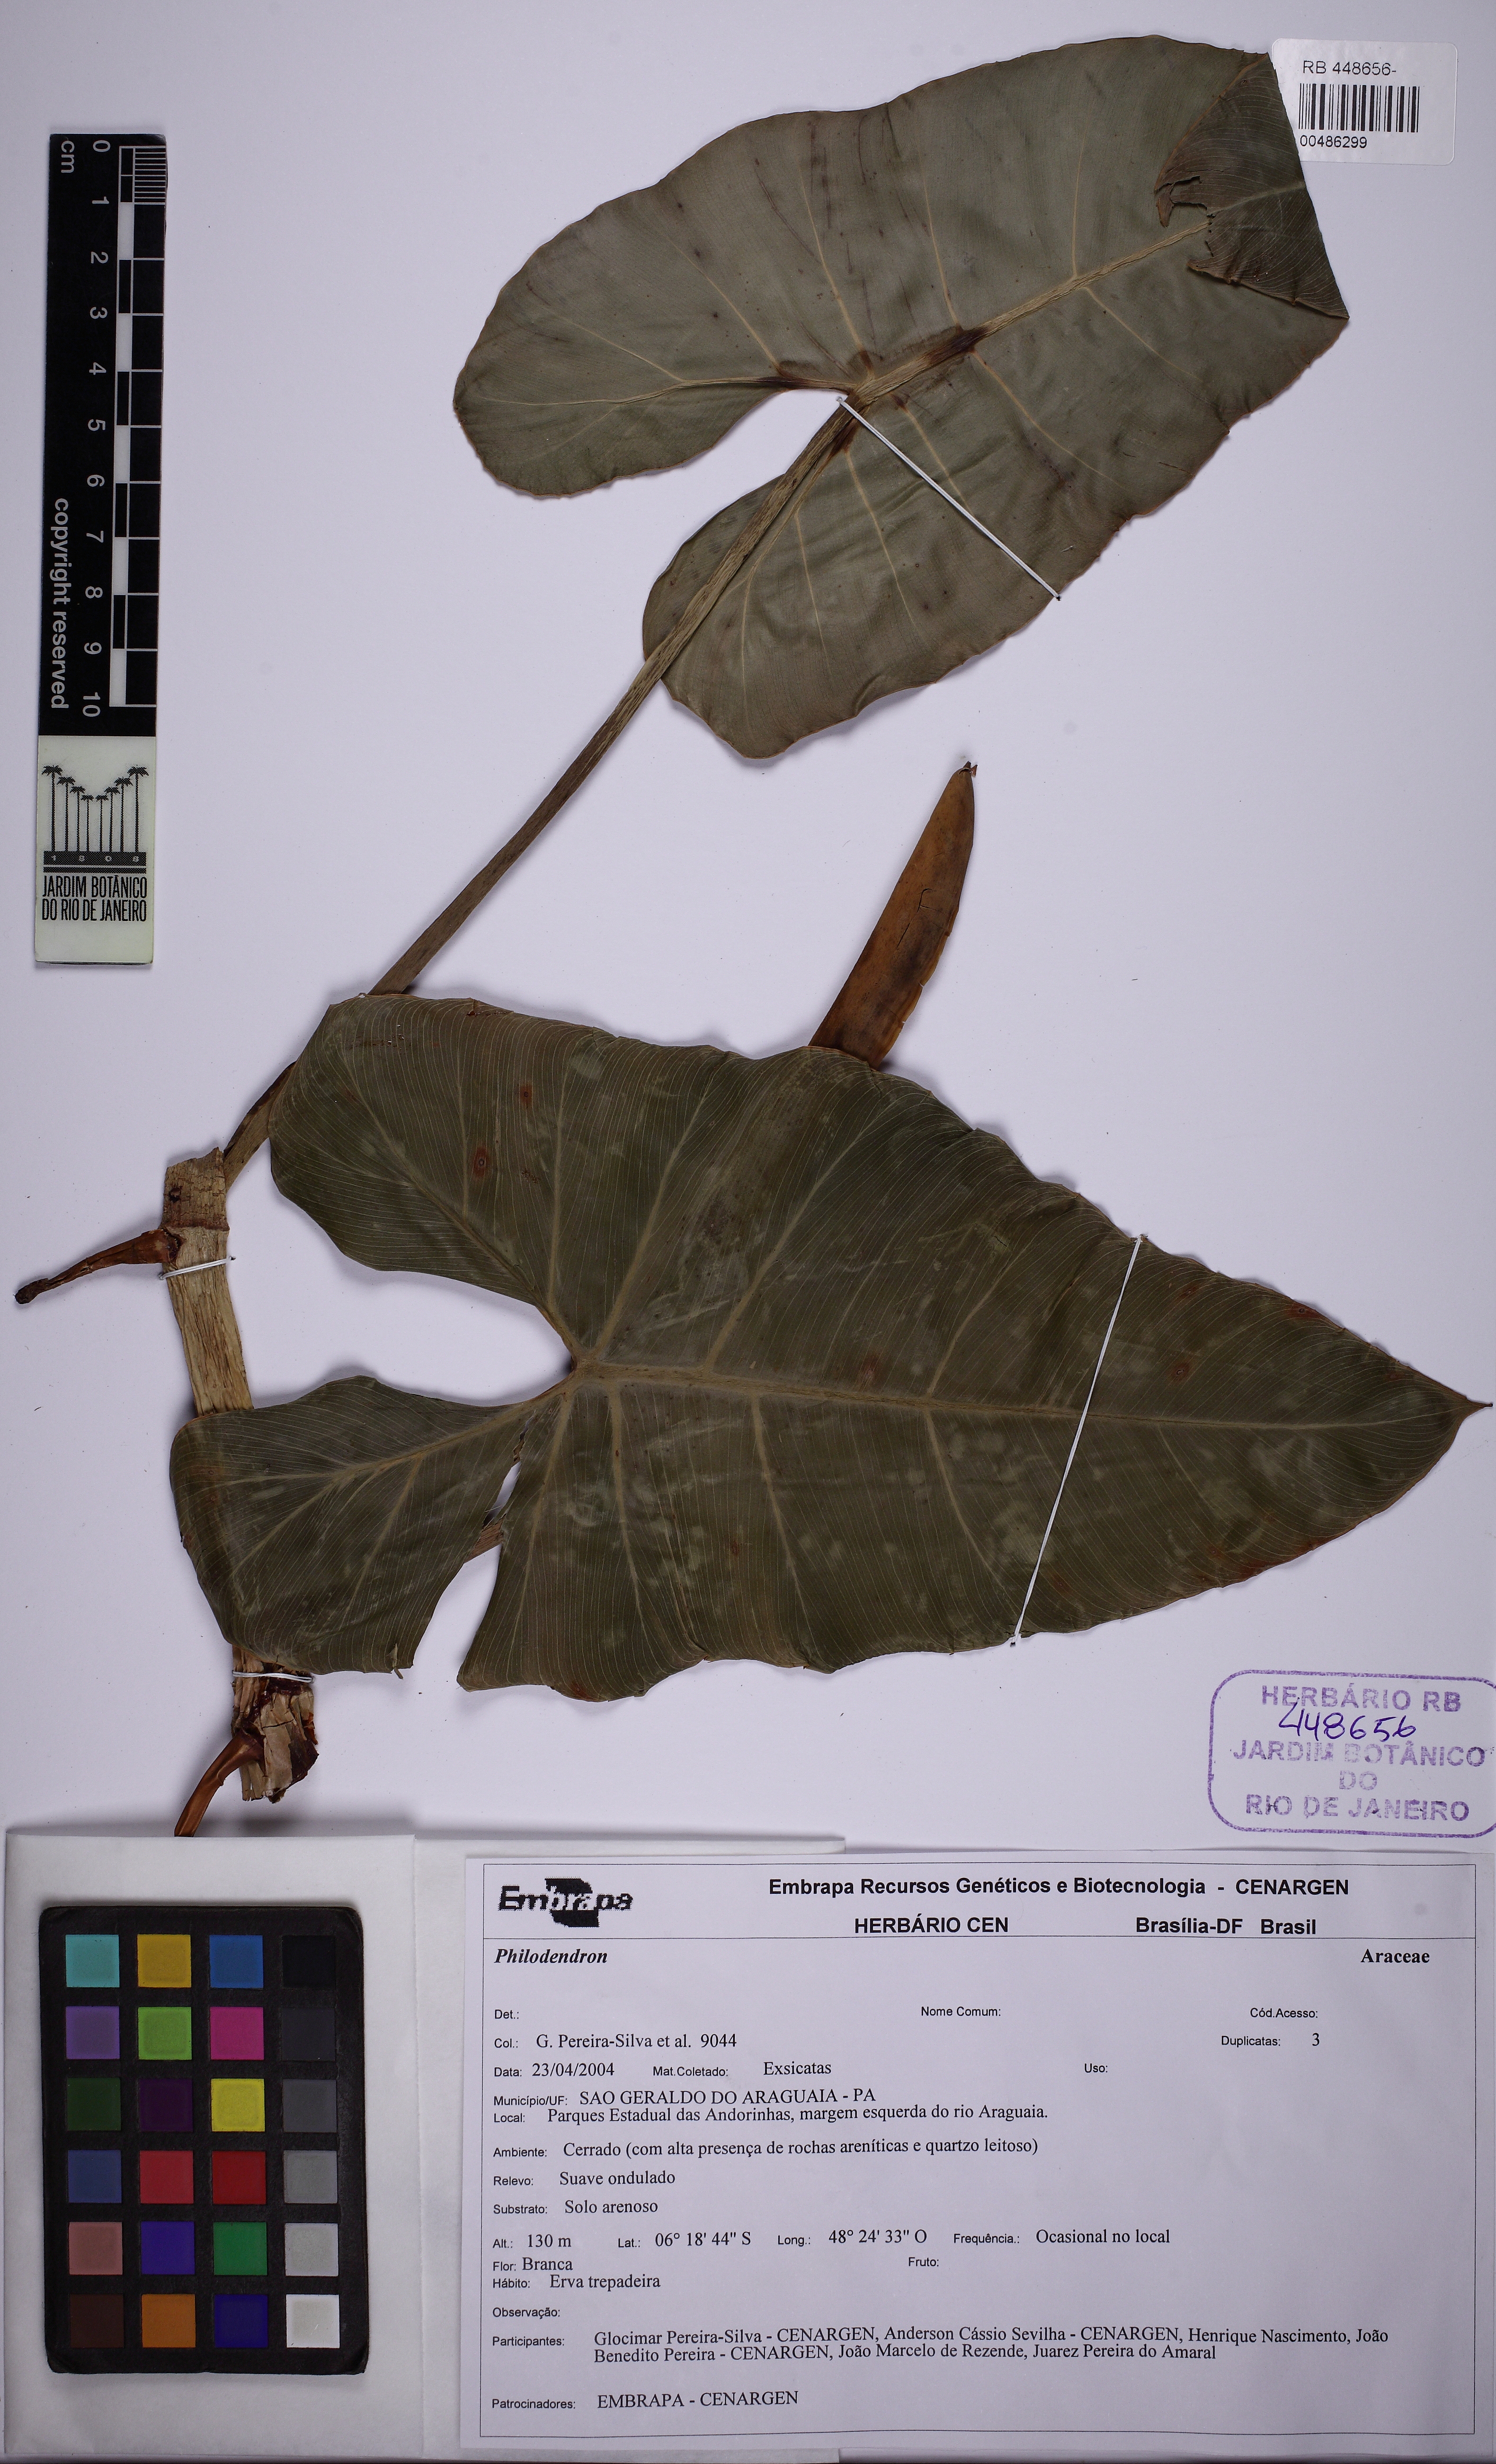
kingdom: Plantae
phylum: Tracheophyta
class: Liliopsida
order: Alismatales
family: Araceae
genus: Philodendron
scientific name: Philodendron quinquenervium
